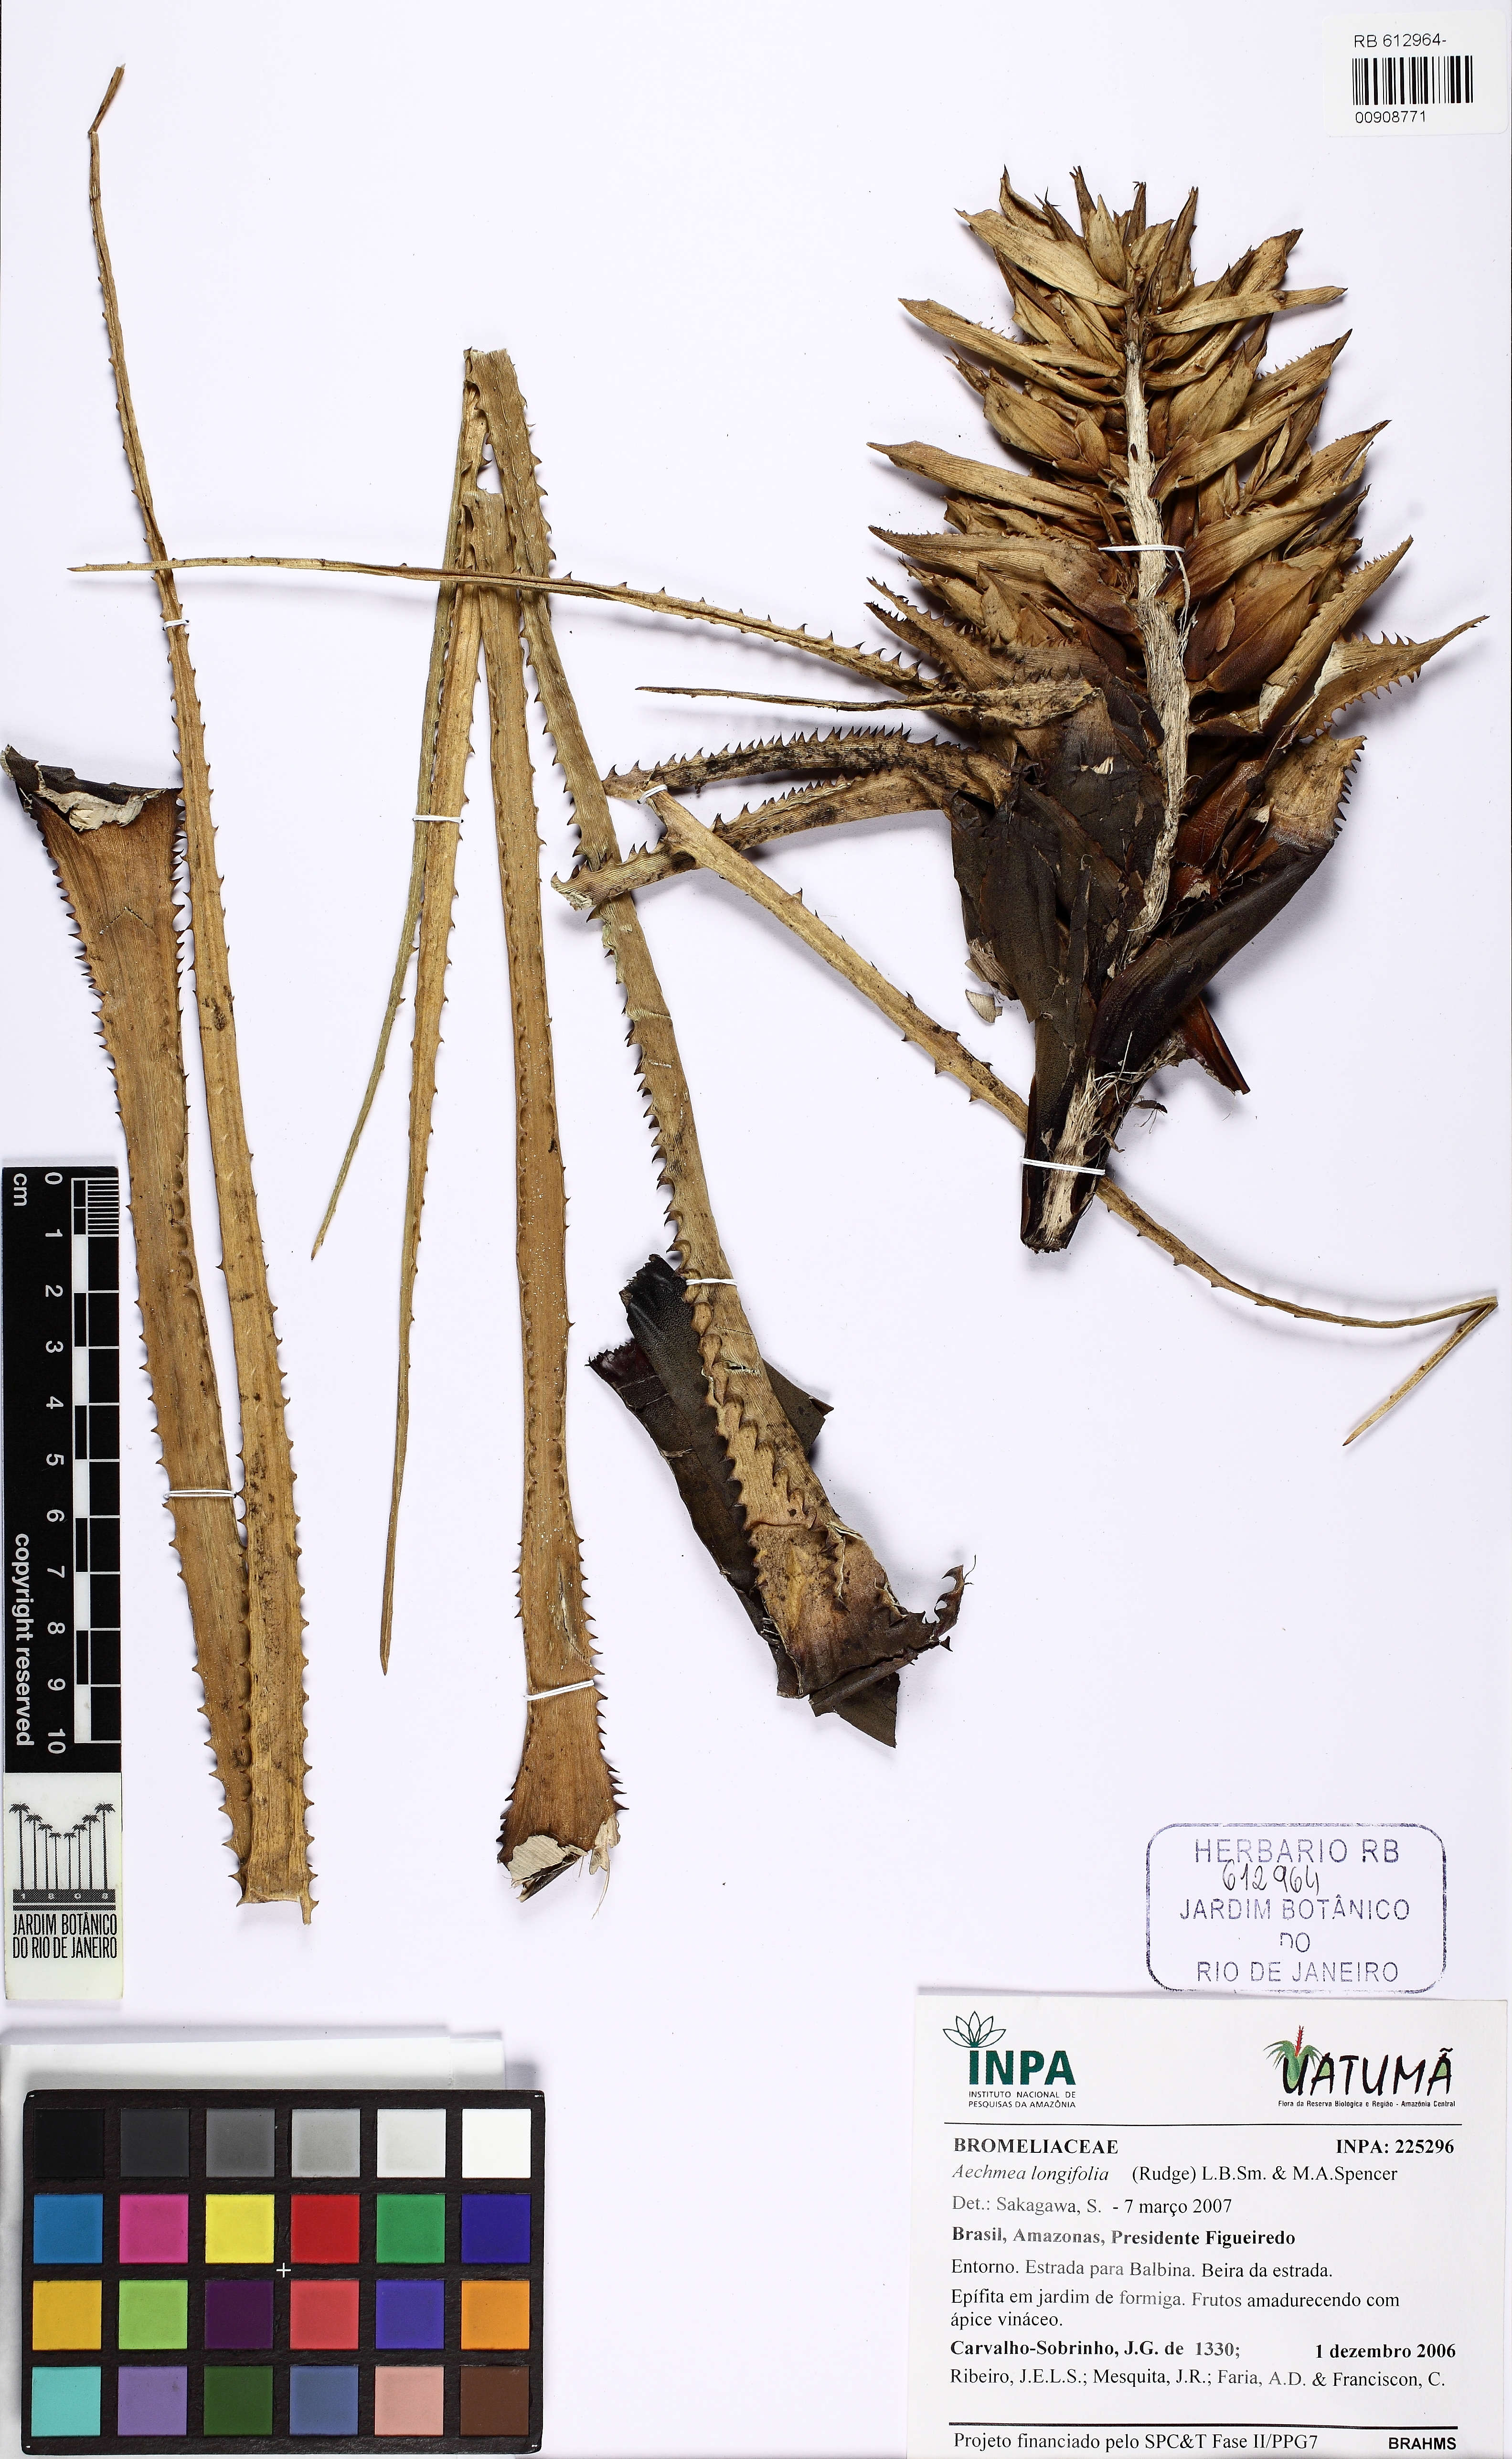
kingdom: Plantae
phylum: Tracheophyta
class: Liliopsida
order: Poales
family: Bromeliaceae
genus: Aechmea
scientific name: Aechmea longifolia
